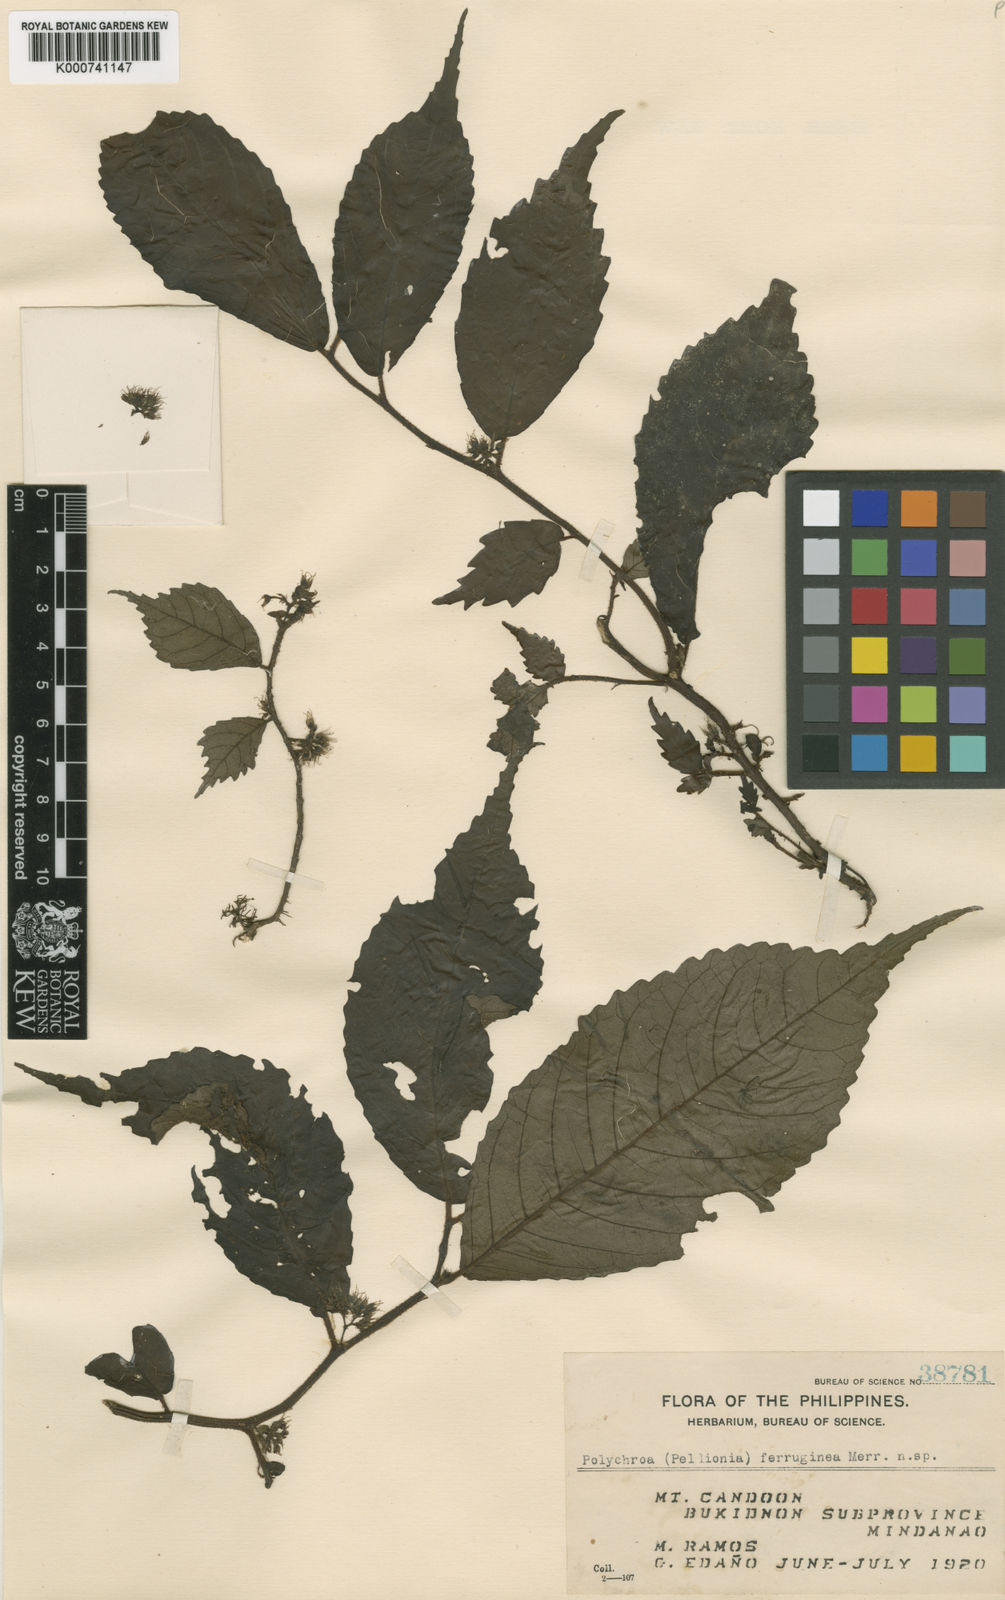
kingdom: Plantae
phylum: Tracheophyta
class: Magnoliopsida
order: Rosales
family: Urticaceae
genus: Elatostema
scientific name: Elatostema volubile
